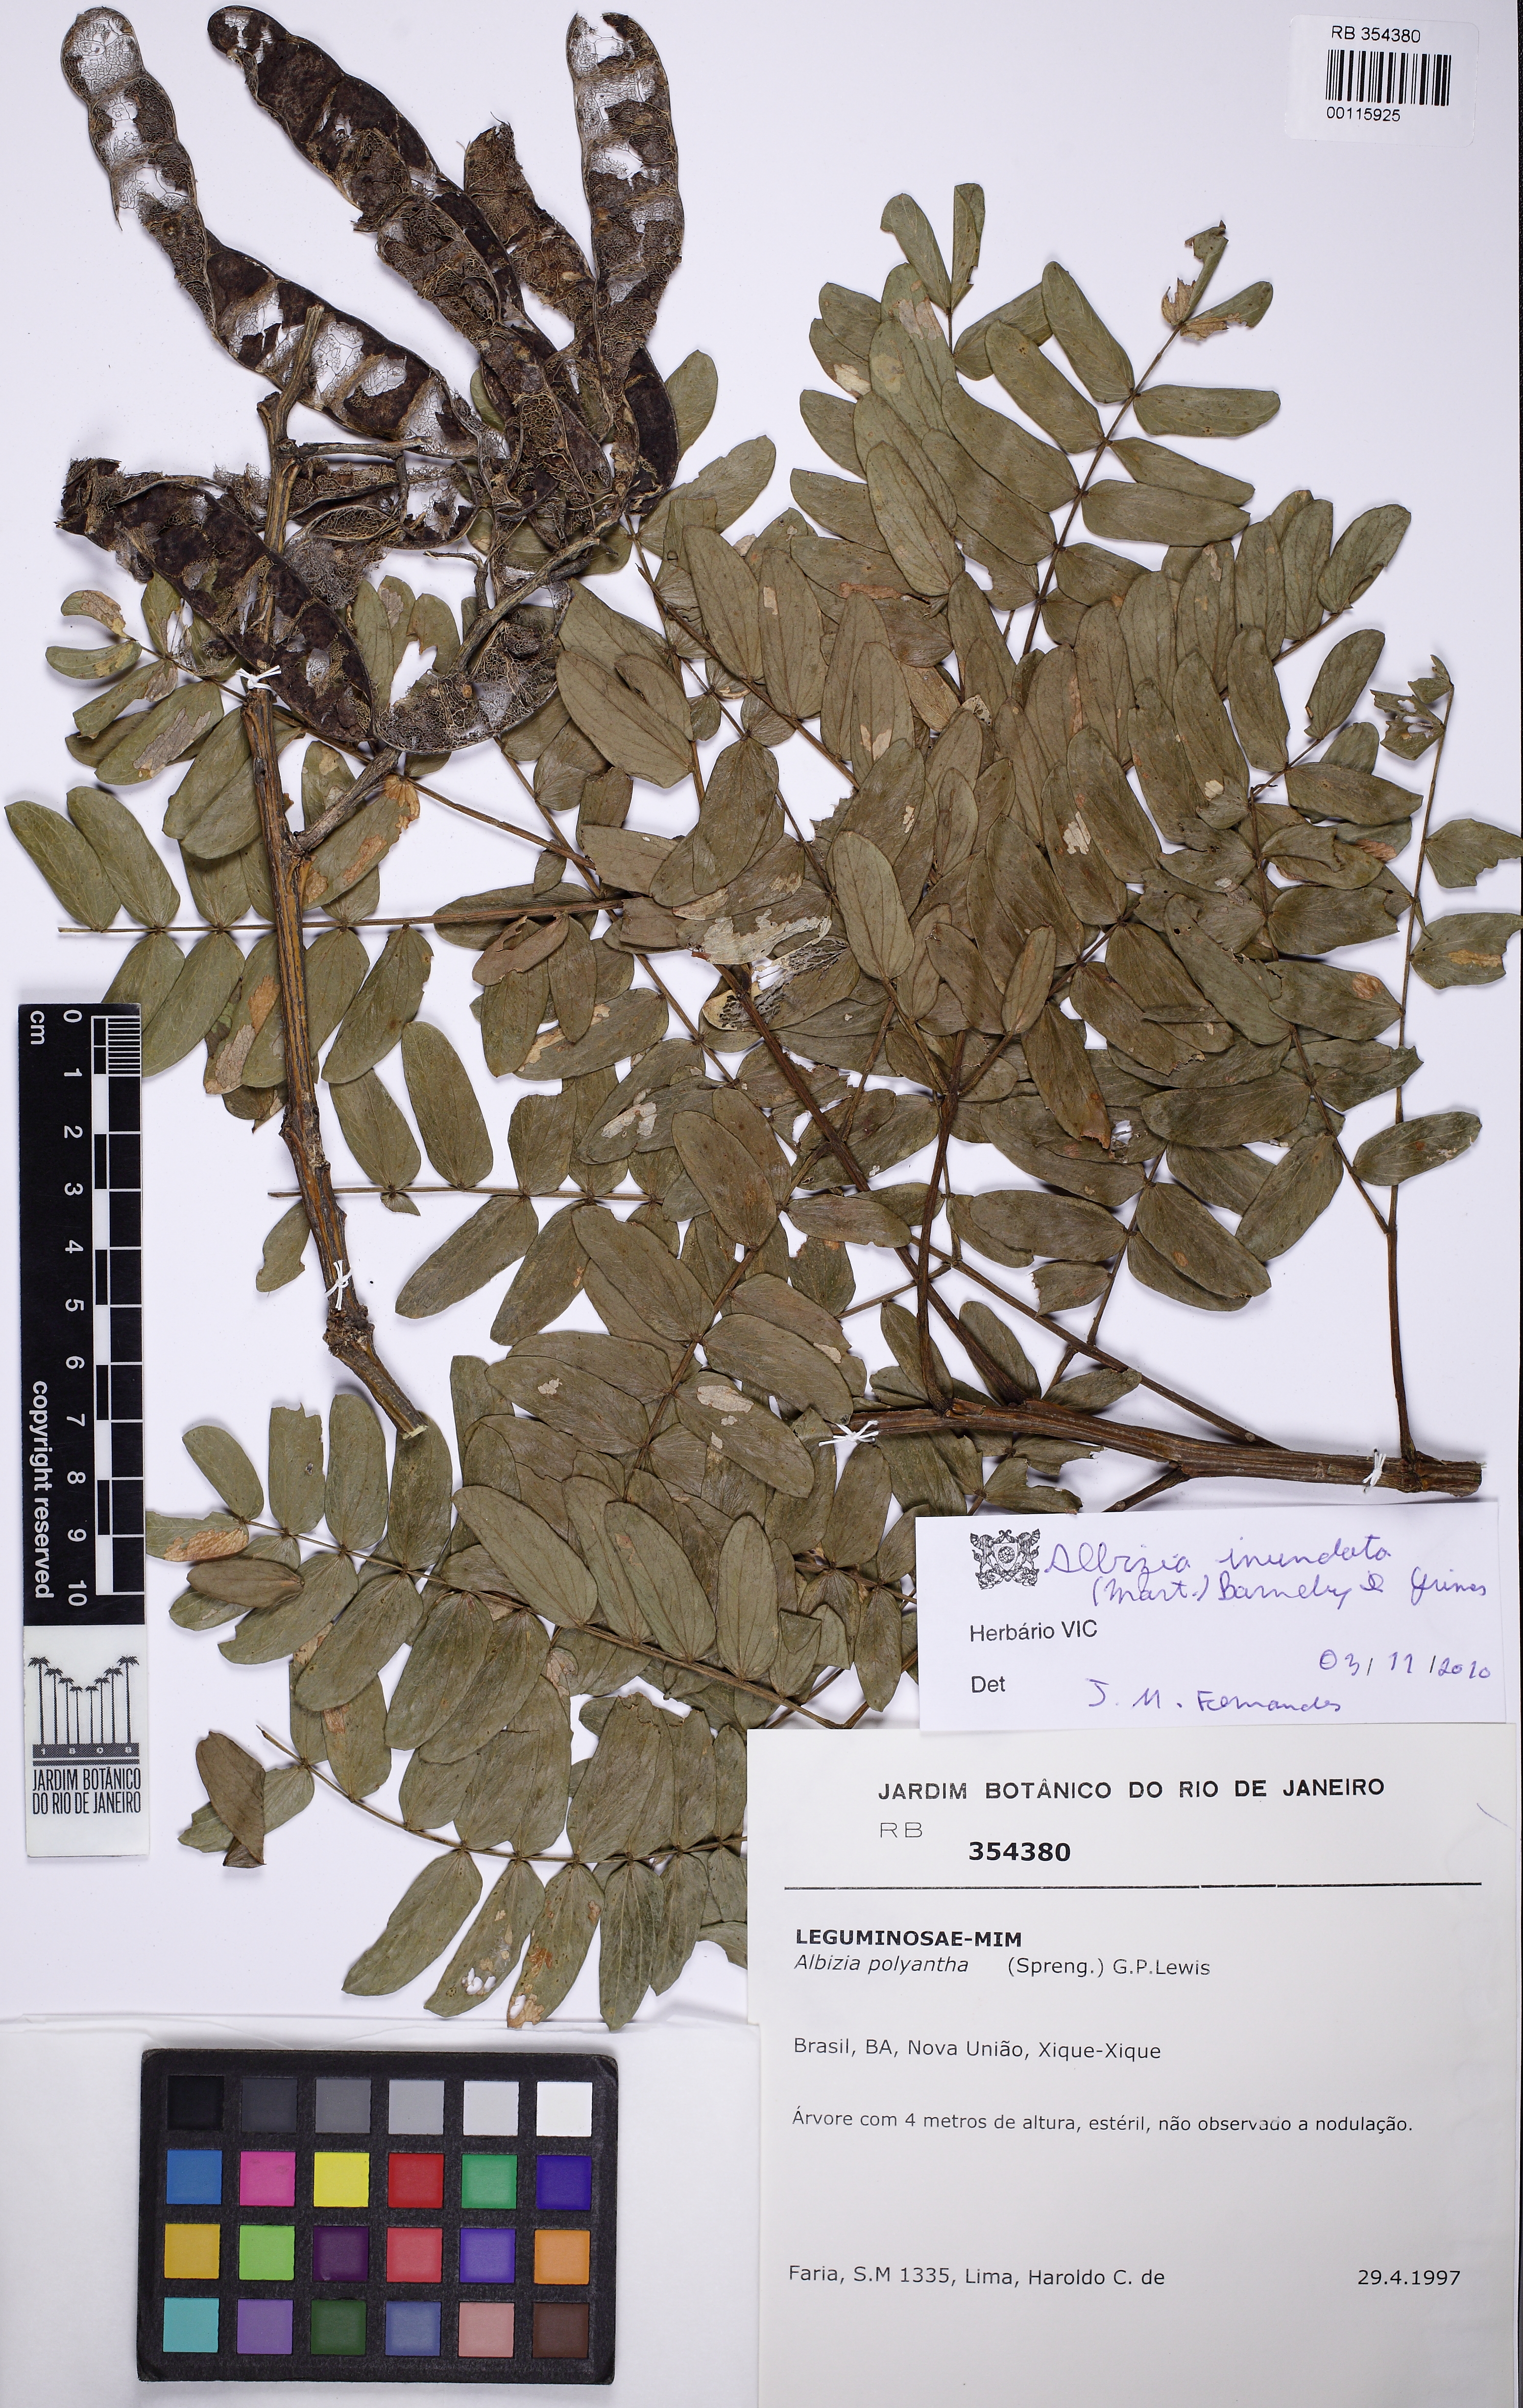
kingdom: Plantae
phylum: Tracheophyta
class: Magnoliopsida
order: Fabales
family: Fabaceae
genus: Albizia
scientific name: Albizia inundata
